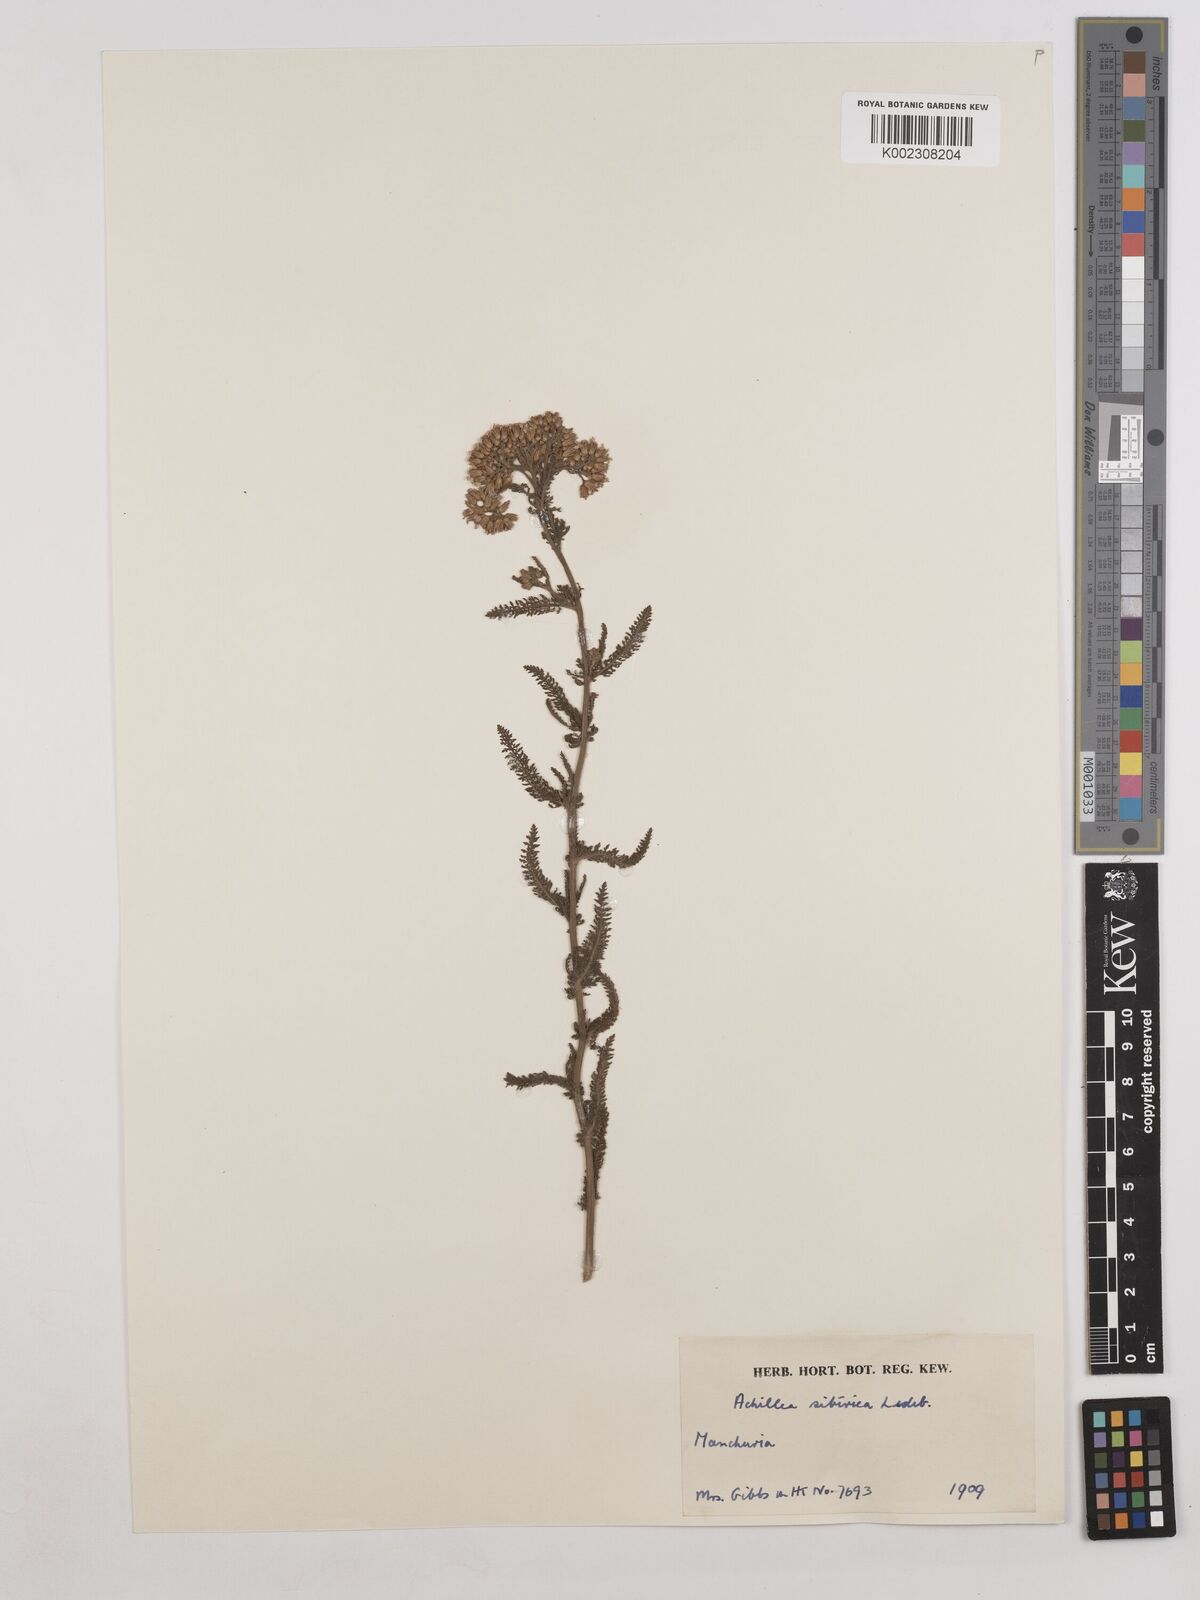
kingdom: Plantae
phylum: Tracheophyta
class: Magnoliopsida
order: Asterales
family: Asteraceae
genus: Achillea
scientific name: Achillea alpina
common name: Siberian yarrow
